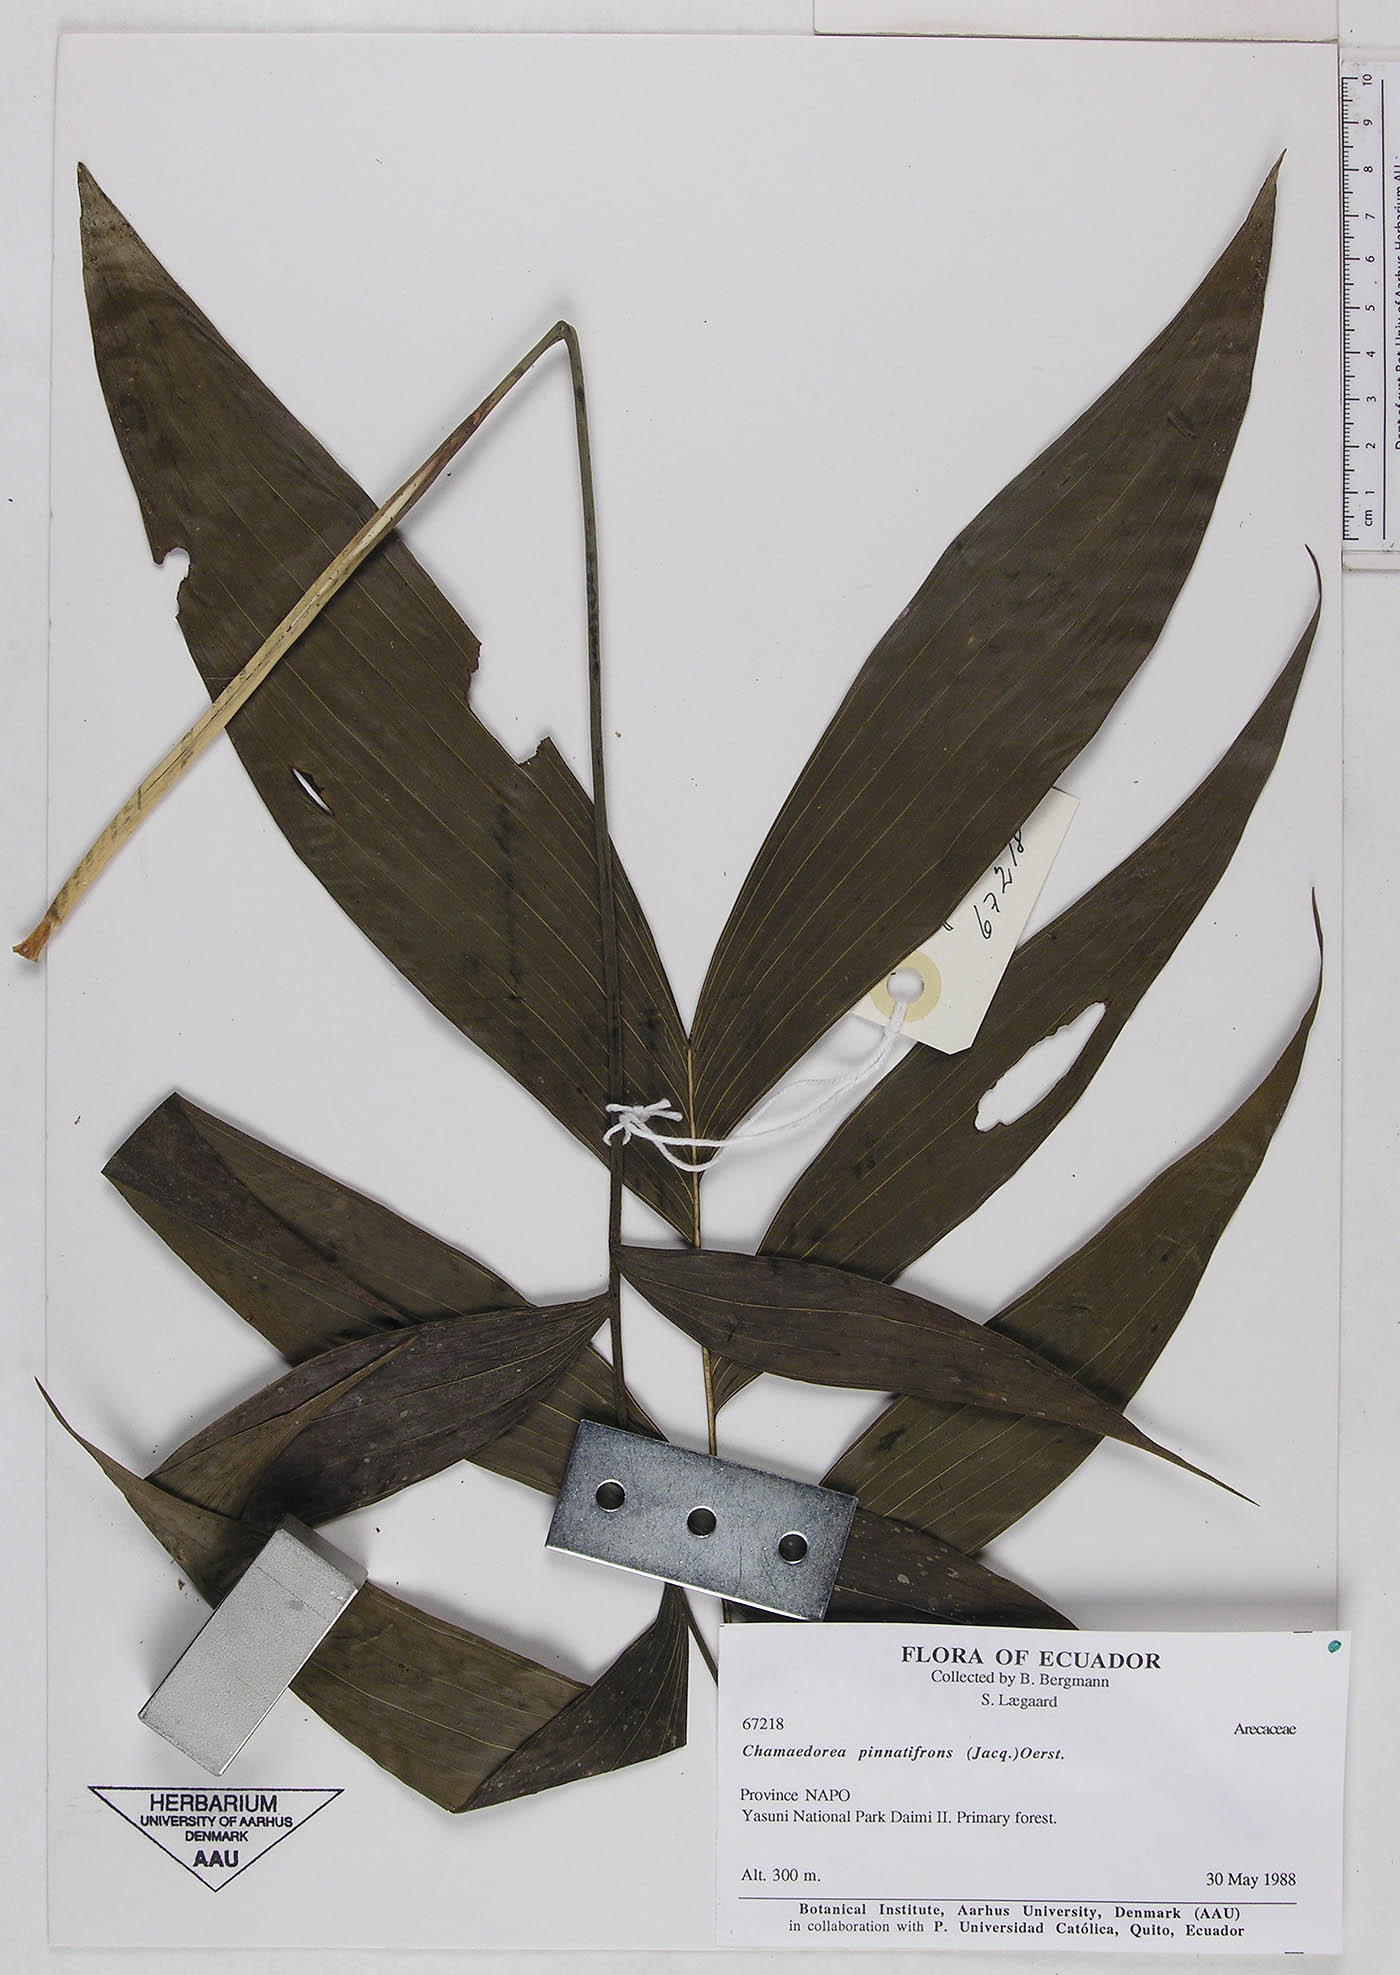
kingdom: Plantae
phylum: Tracheophyta
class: Liliopsida
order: Arecales
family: Arecaceae
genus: Chamaedorea
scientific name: Chamaedorea pinnatifrons
